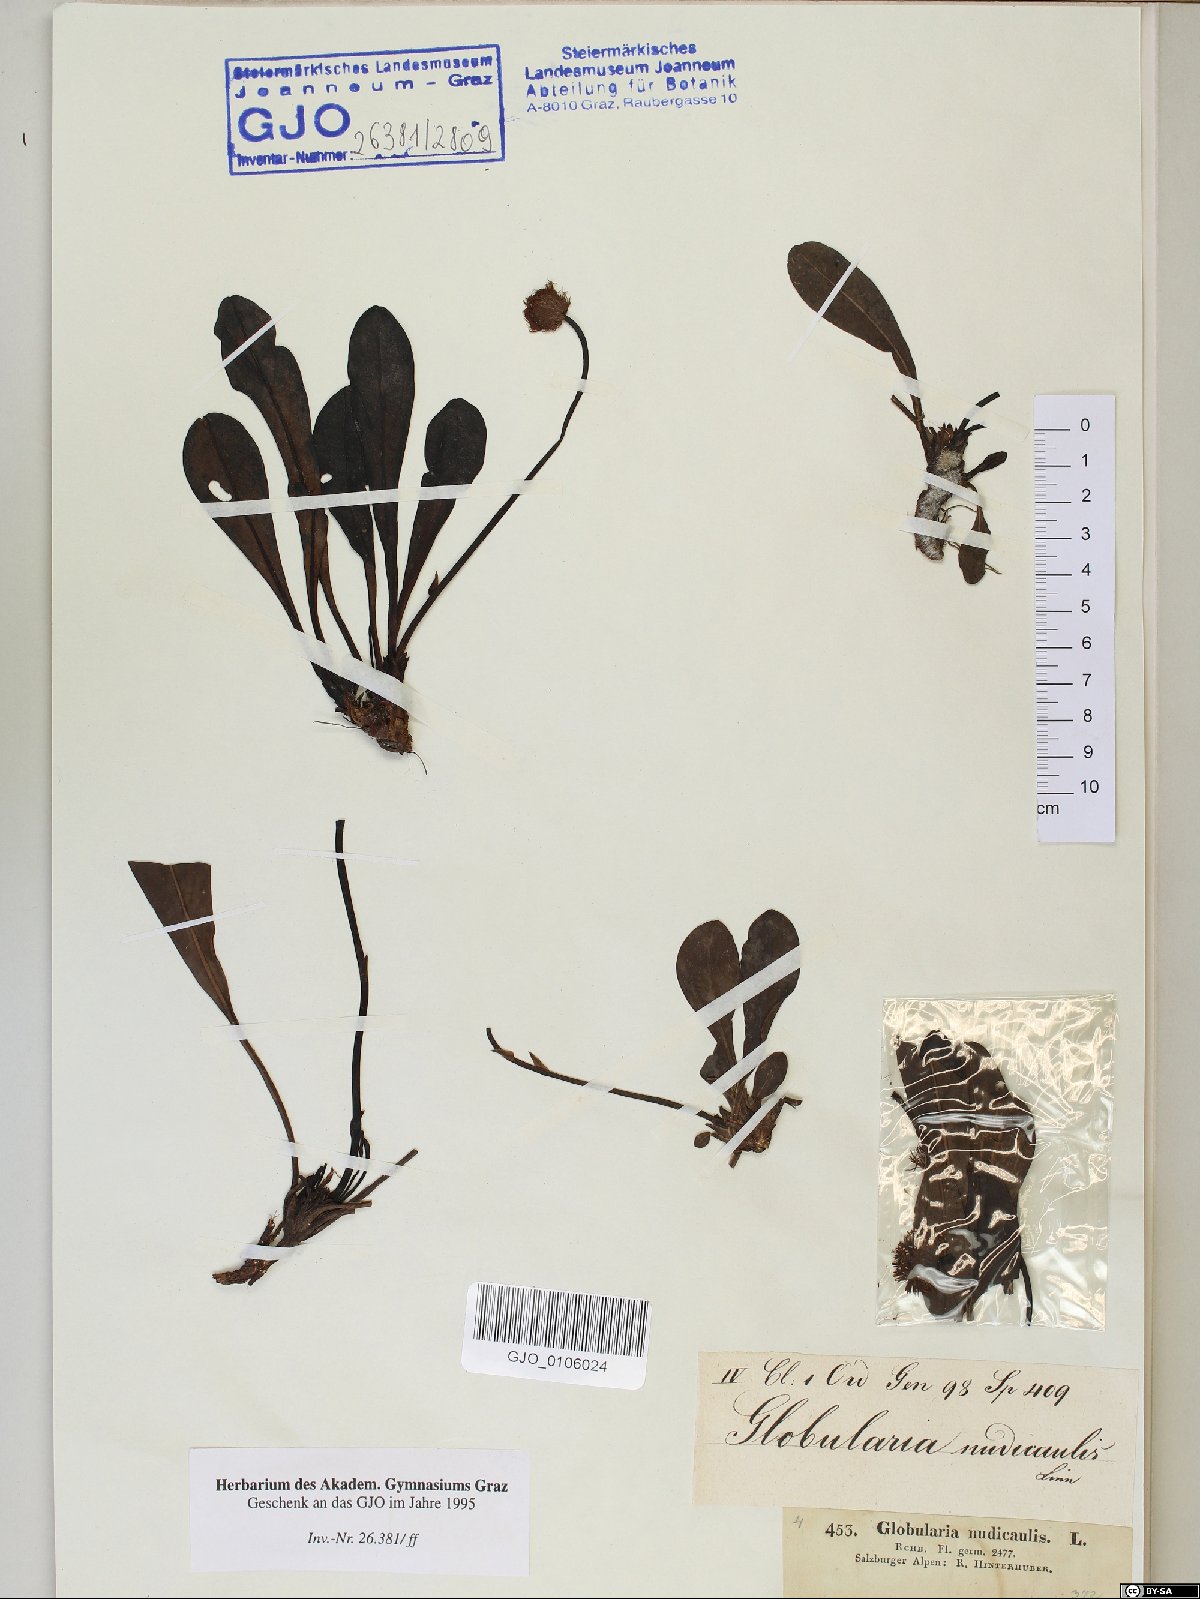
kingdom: Plantae
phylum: Tracheophyta
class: Magnoliopsida
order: Lamiales
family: Plantaginaceae
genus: Globularia
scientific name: Globularia nudicaulis
